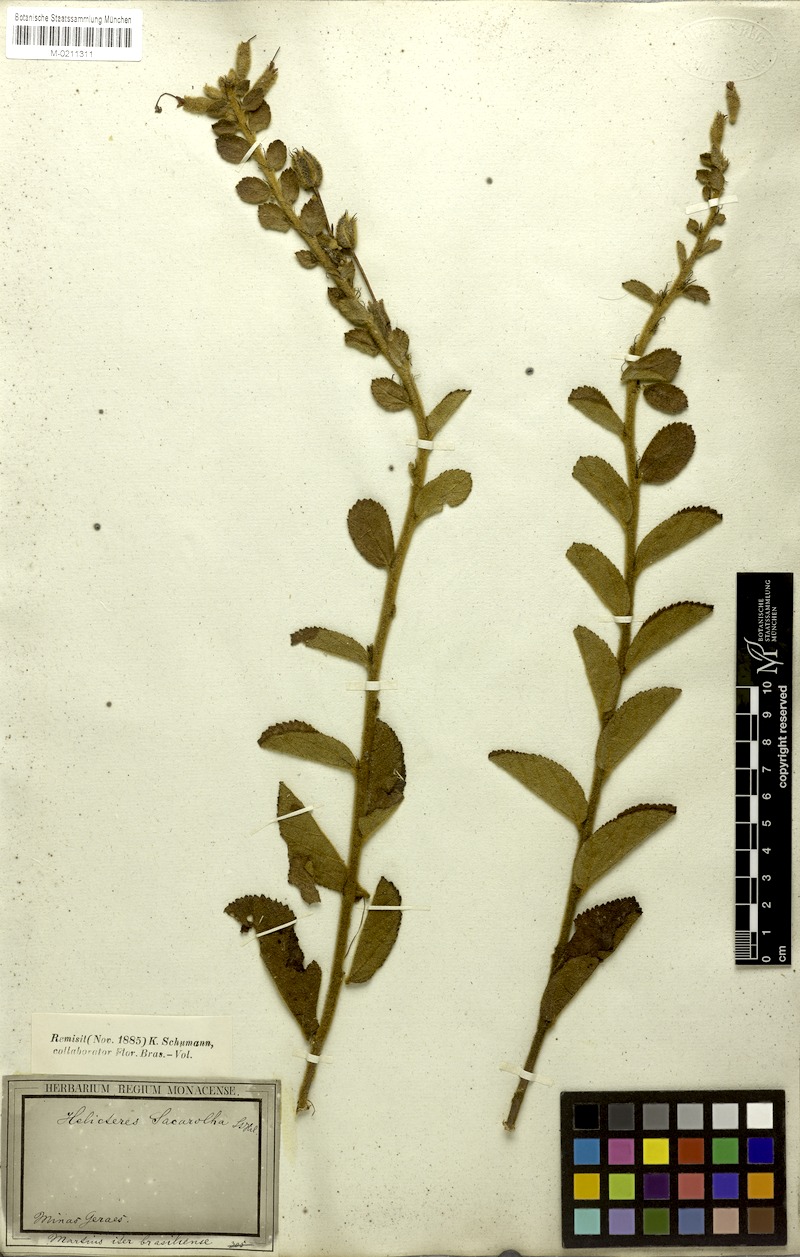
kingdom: Plantae
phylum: Tracheophyta
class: Magnoliopsida
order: Malvales
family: Malvaceae
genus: Helicteres
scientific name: Helicteres sacarolha
